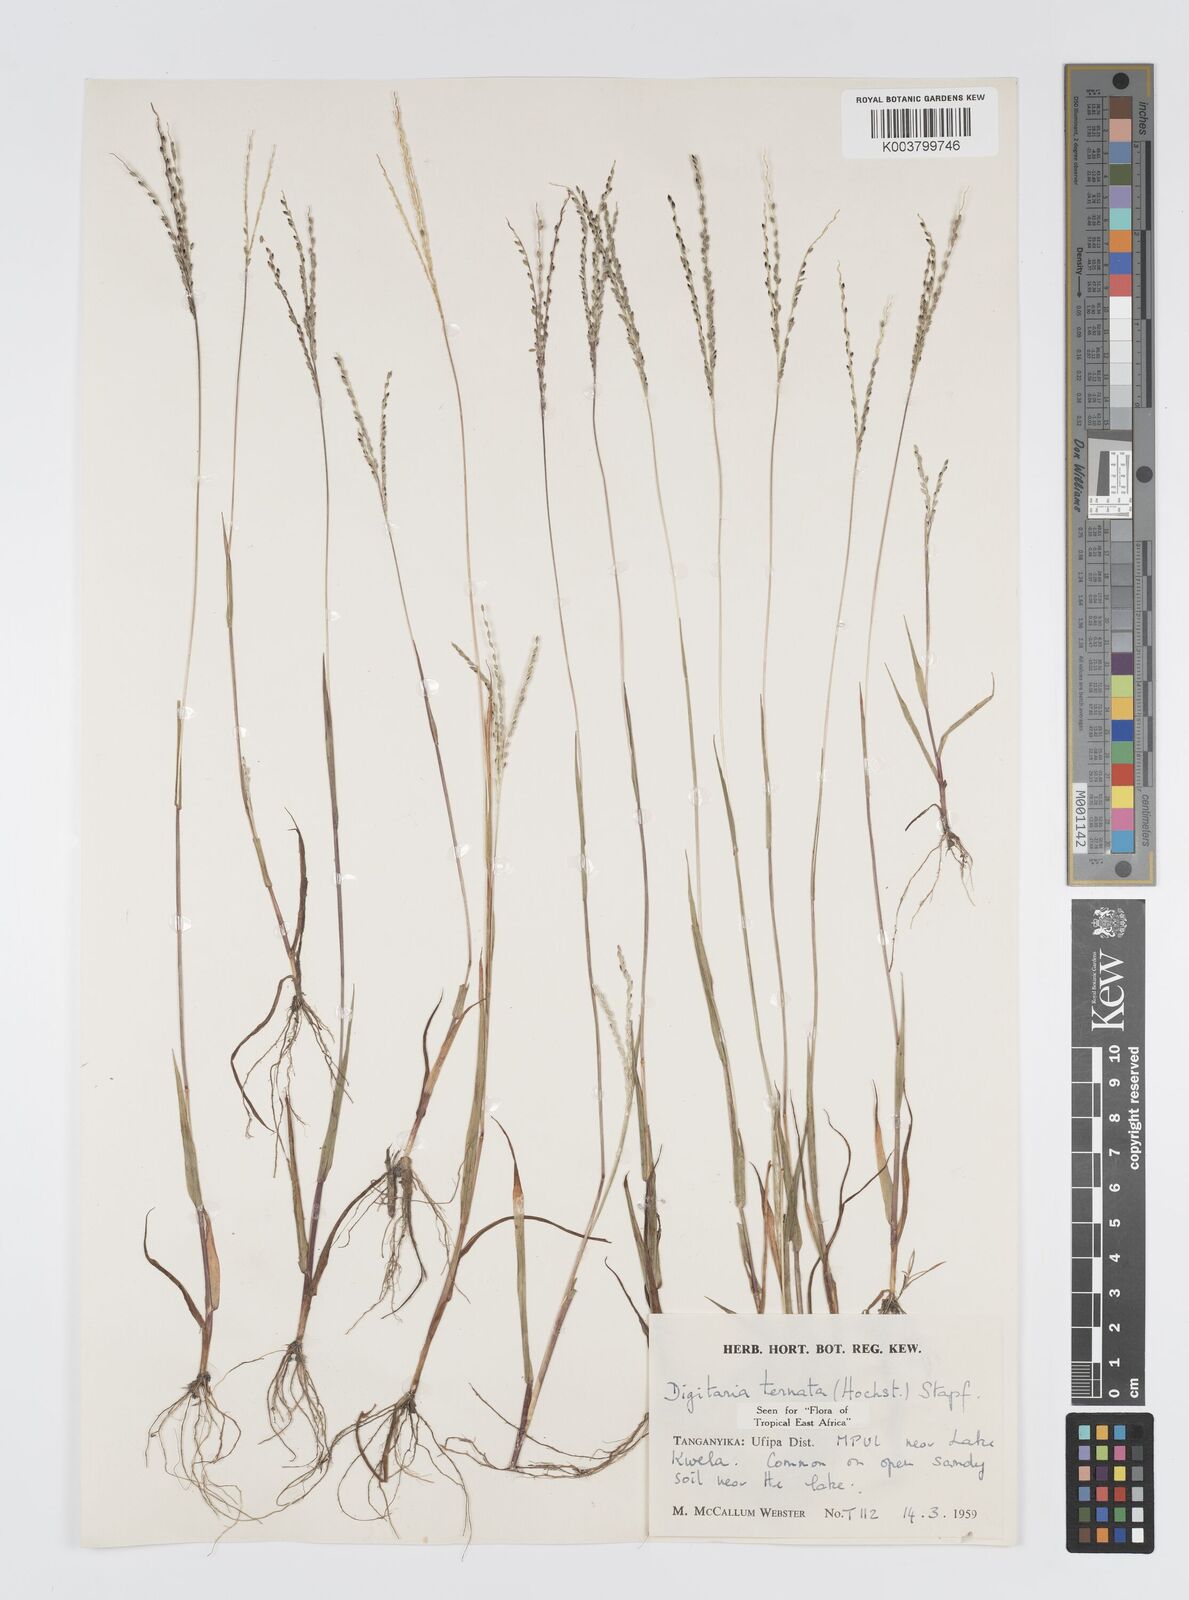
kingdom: Plantae
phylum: Tracheophyta
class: Liliopsida
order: Poales
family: Poaceae
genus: Digitaria
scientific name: Digitaria ternata
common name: Blackseed crabgrass
